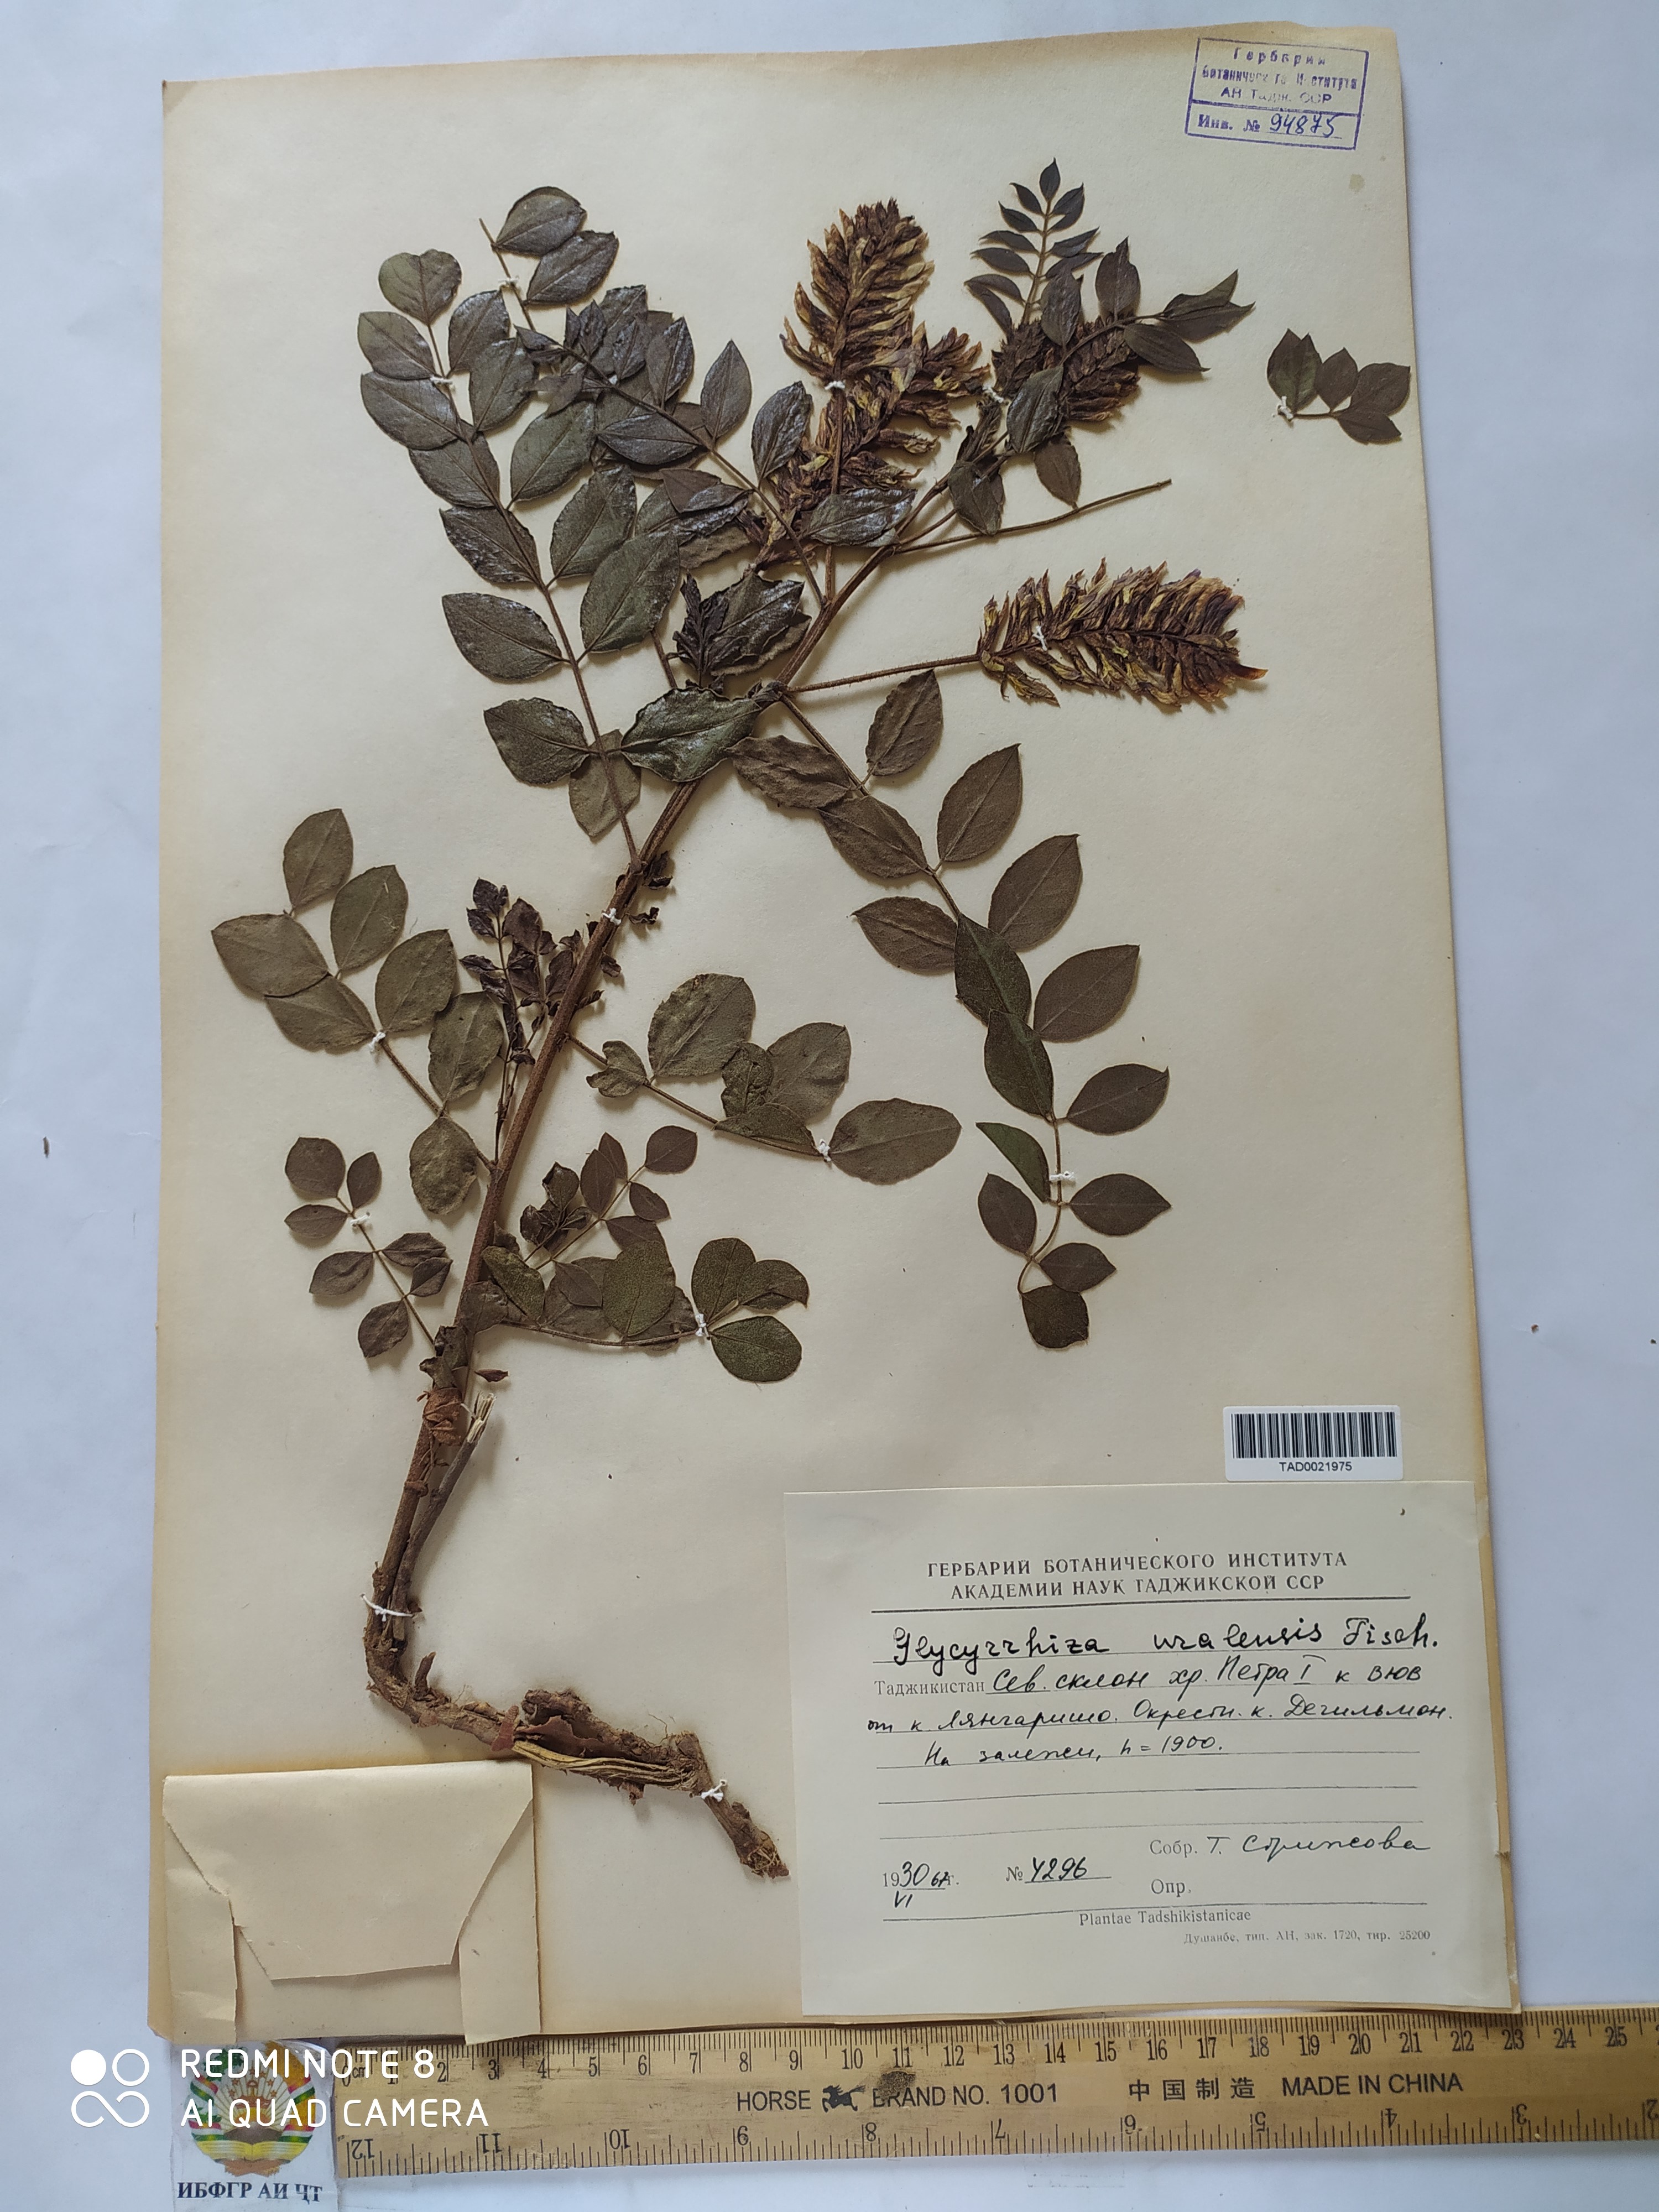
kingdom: Plantae
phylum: Tracheophyta
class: Magnoliopsida
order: Fabales
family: Fabaceae
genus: Glycyrrhiza
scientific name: Glycyrrhiza uralensis
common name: Chinese licorice
